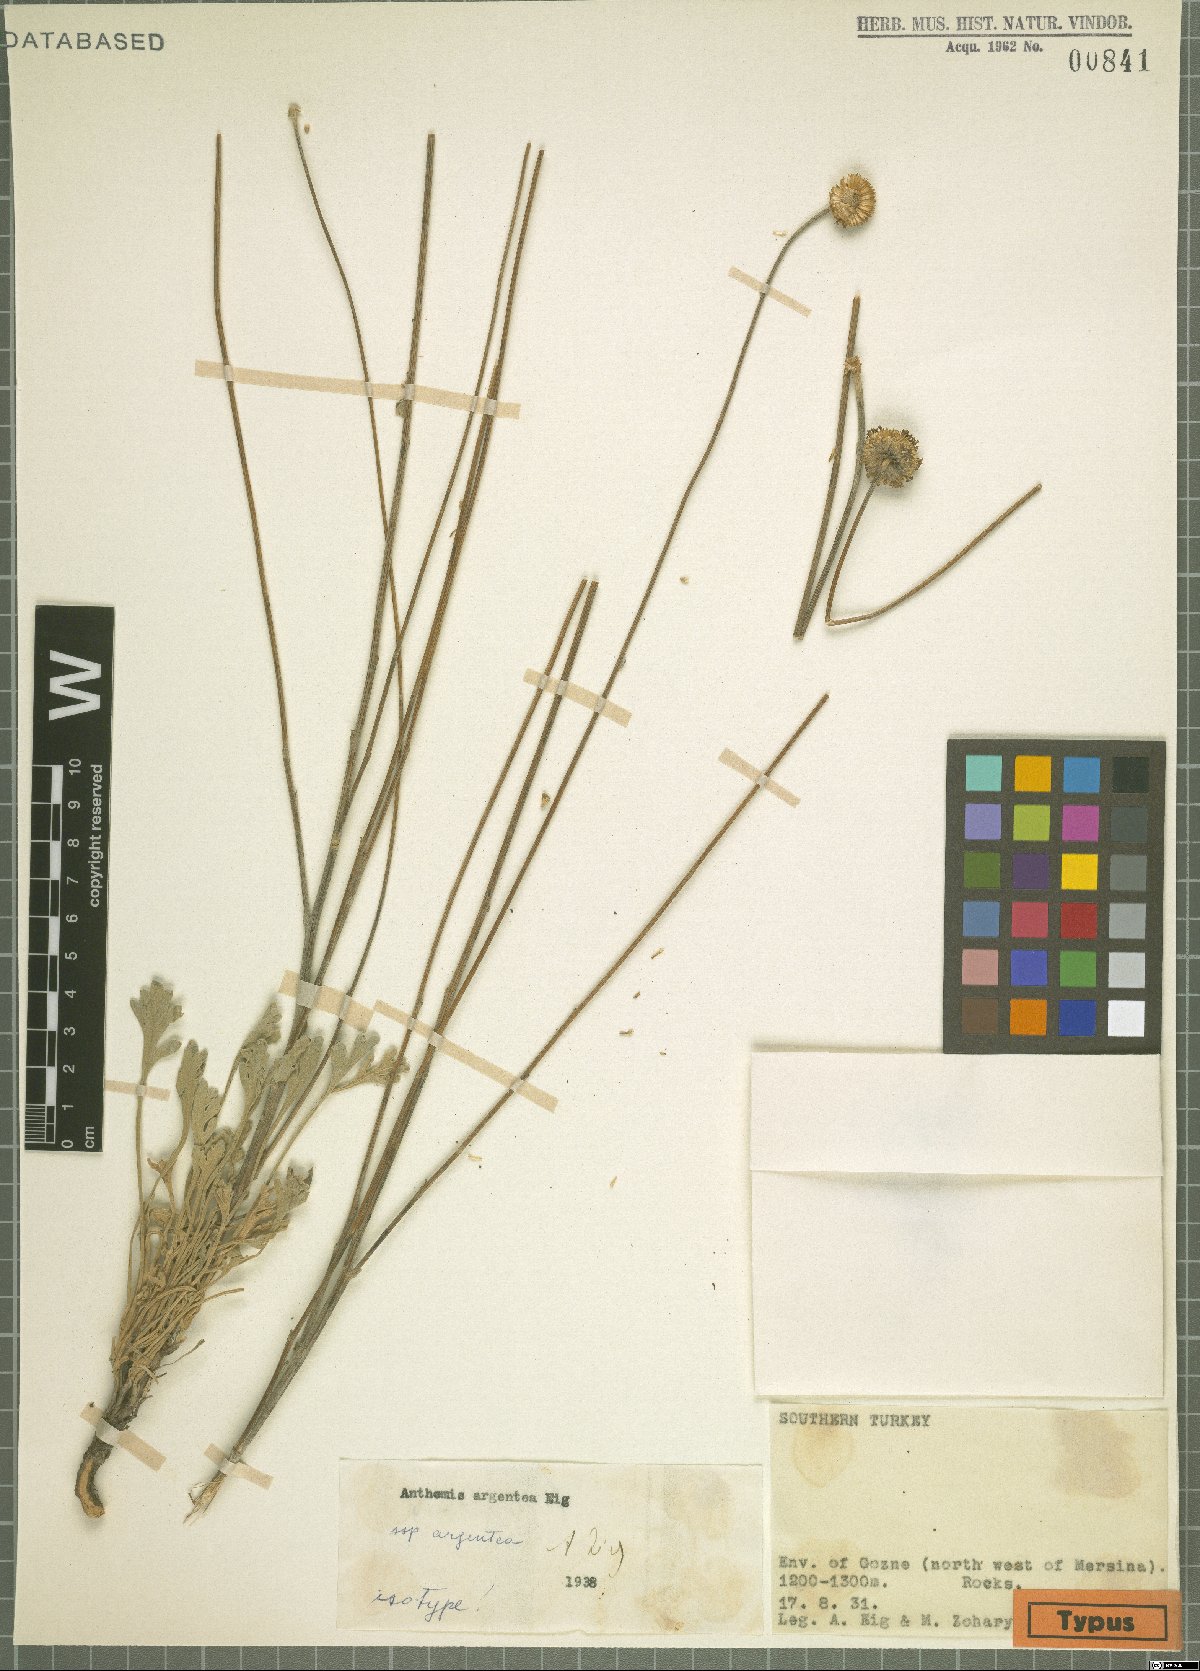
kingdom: Plantae
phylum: Tracheophyta
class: Magnoliopsida
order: Asterales
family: Asteraceae
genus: Anthemis
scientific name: Anthemis parviloba
